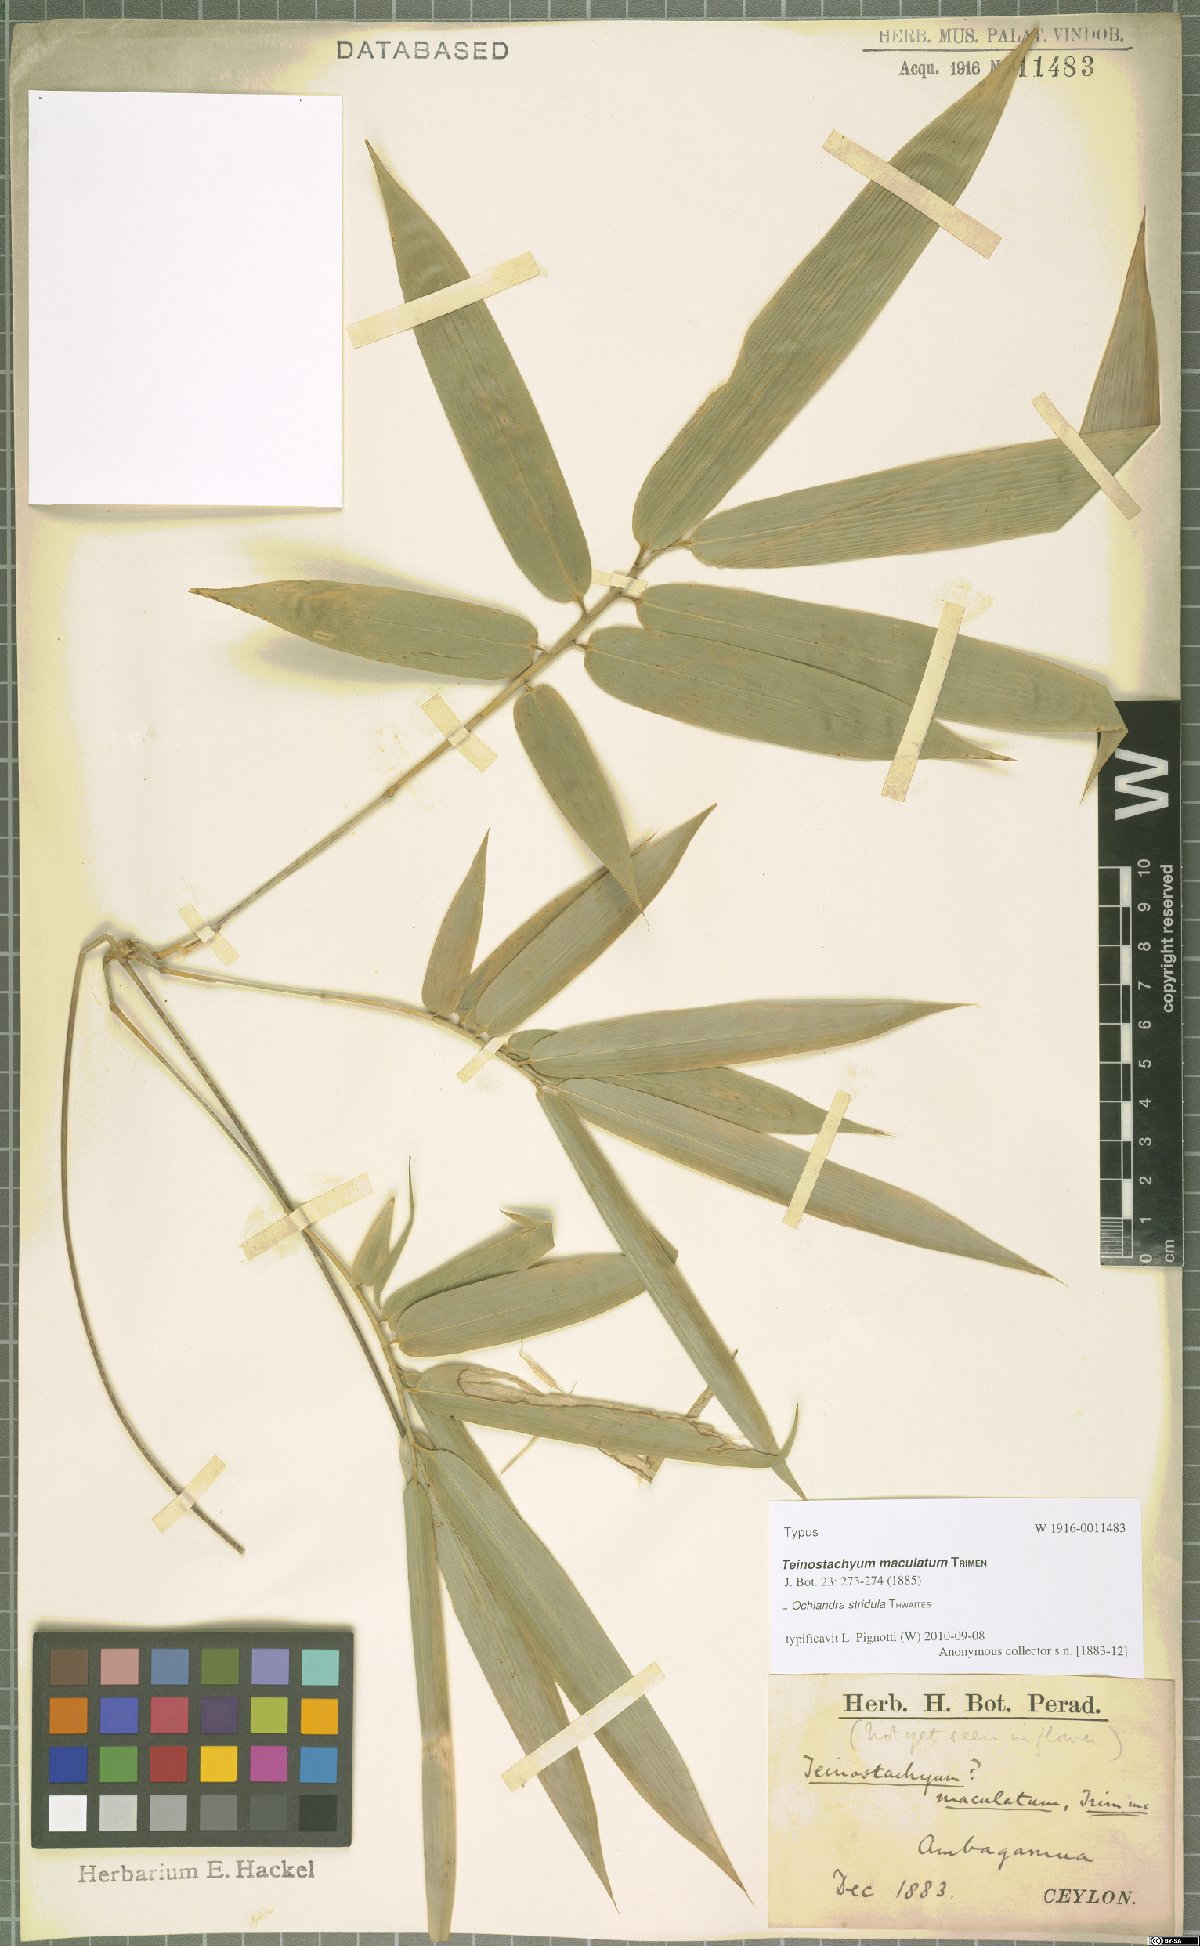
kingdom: Plantae
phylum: Tracheophyta
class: Liliopsida
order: Poales
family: Poaceae
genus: Ochlandra
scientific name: Ochlandra stridula
